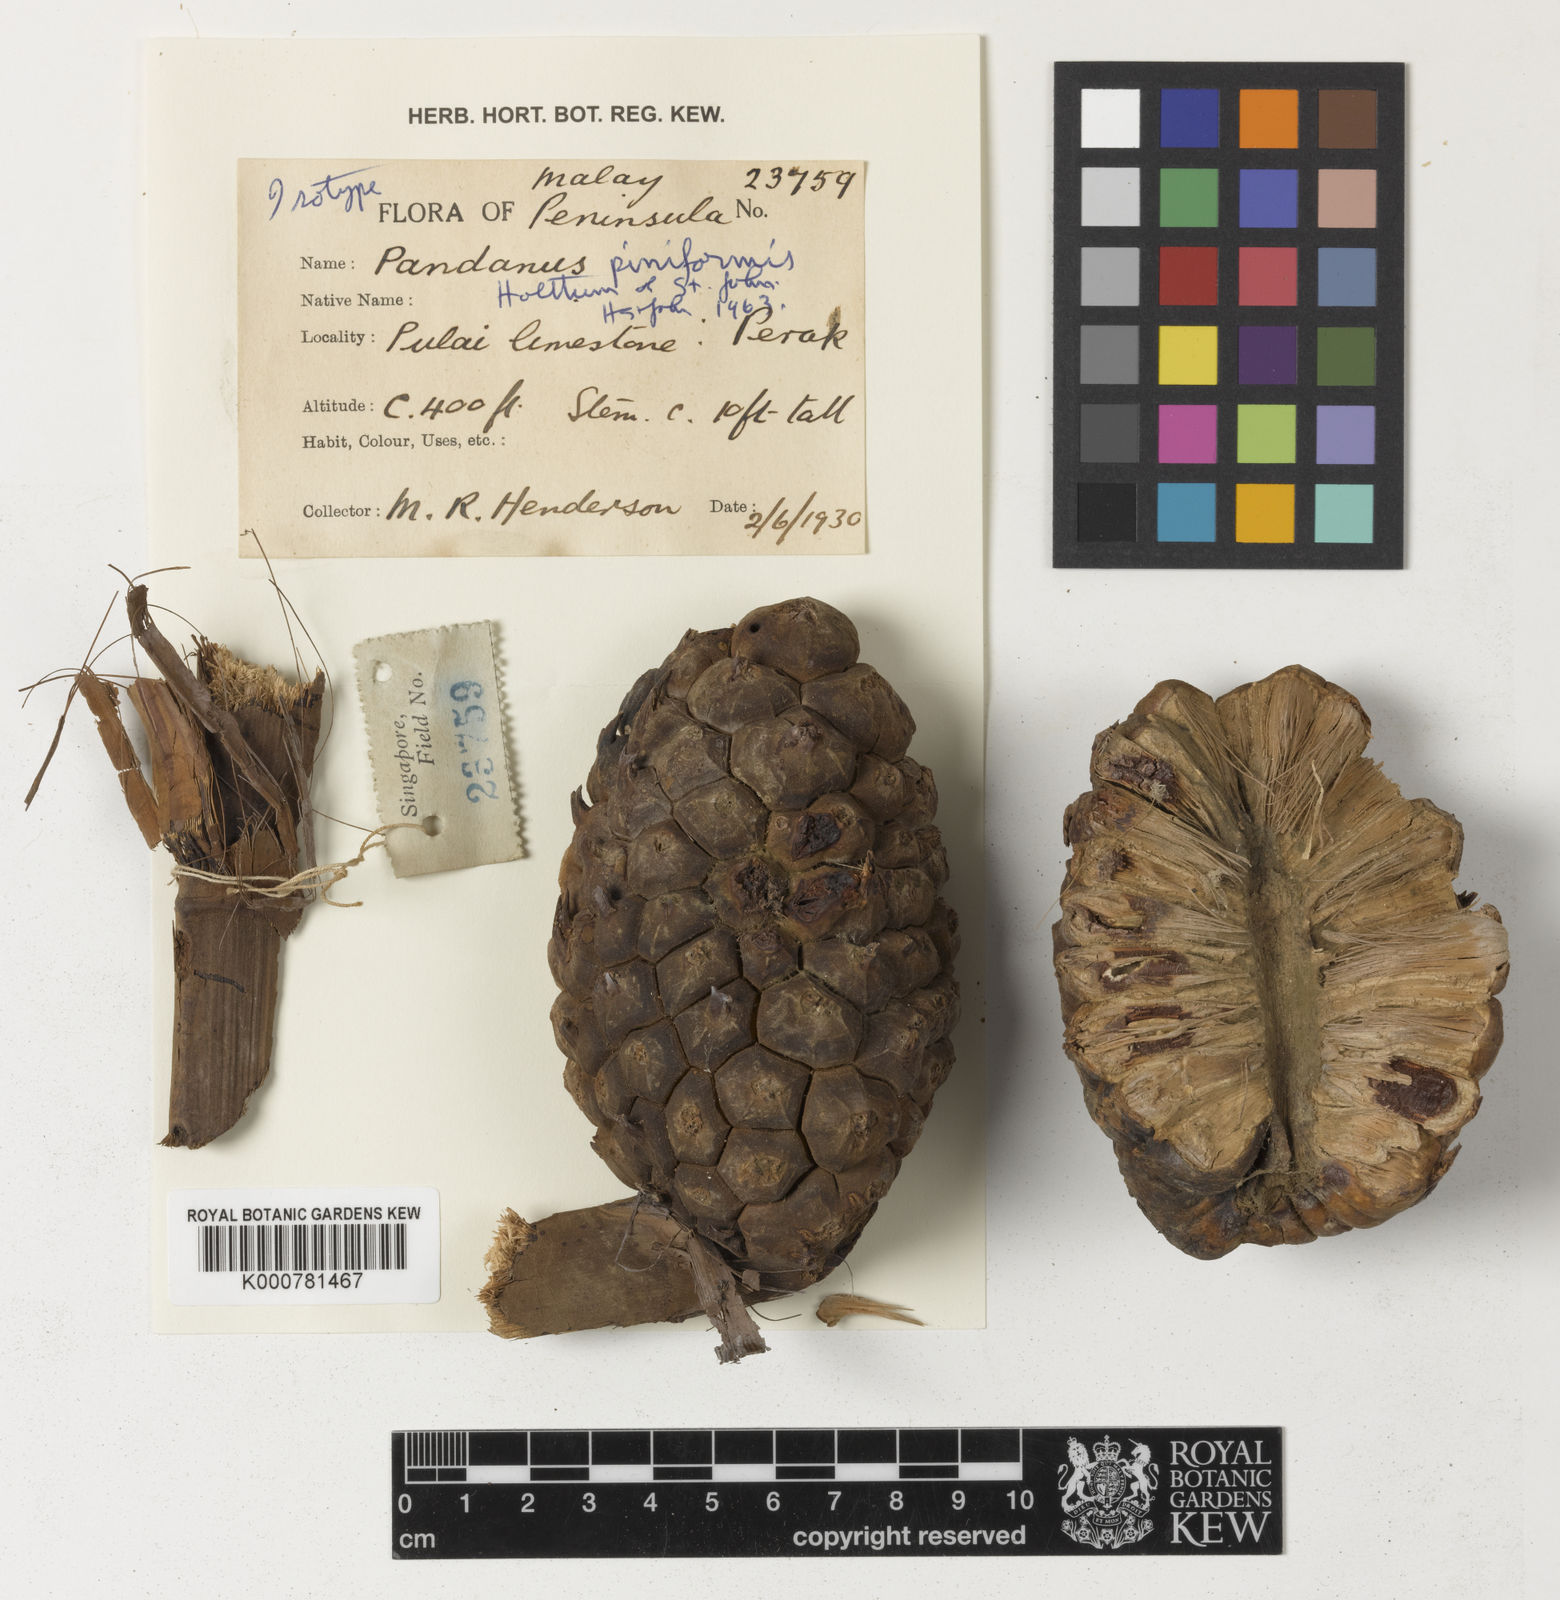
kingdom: Plantae
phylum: Tracheophyta
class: Liliopsida
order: Pandanales
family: Pandanaceae
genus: Pandanus
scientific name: Pandanus piniformis
